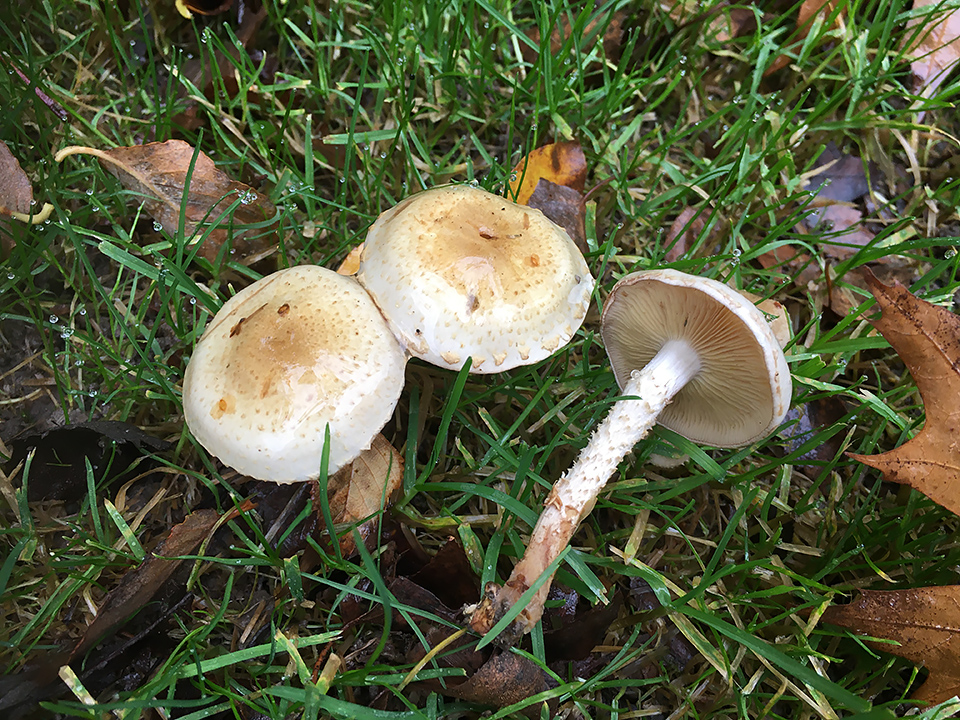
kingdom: Fungi
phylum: Basidiomycota
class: Agaricomycetes
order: Agaricales
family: Strophariaceae
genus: Pholiota
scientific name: Pholiota gummosa
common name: grøngul skælhat
